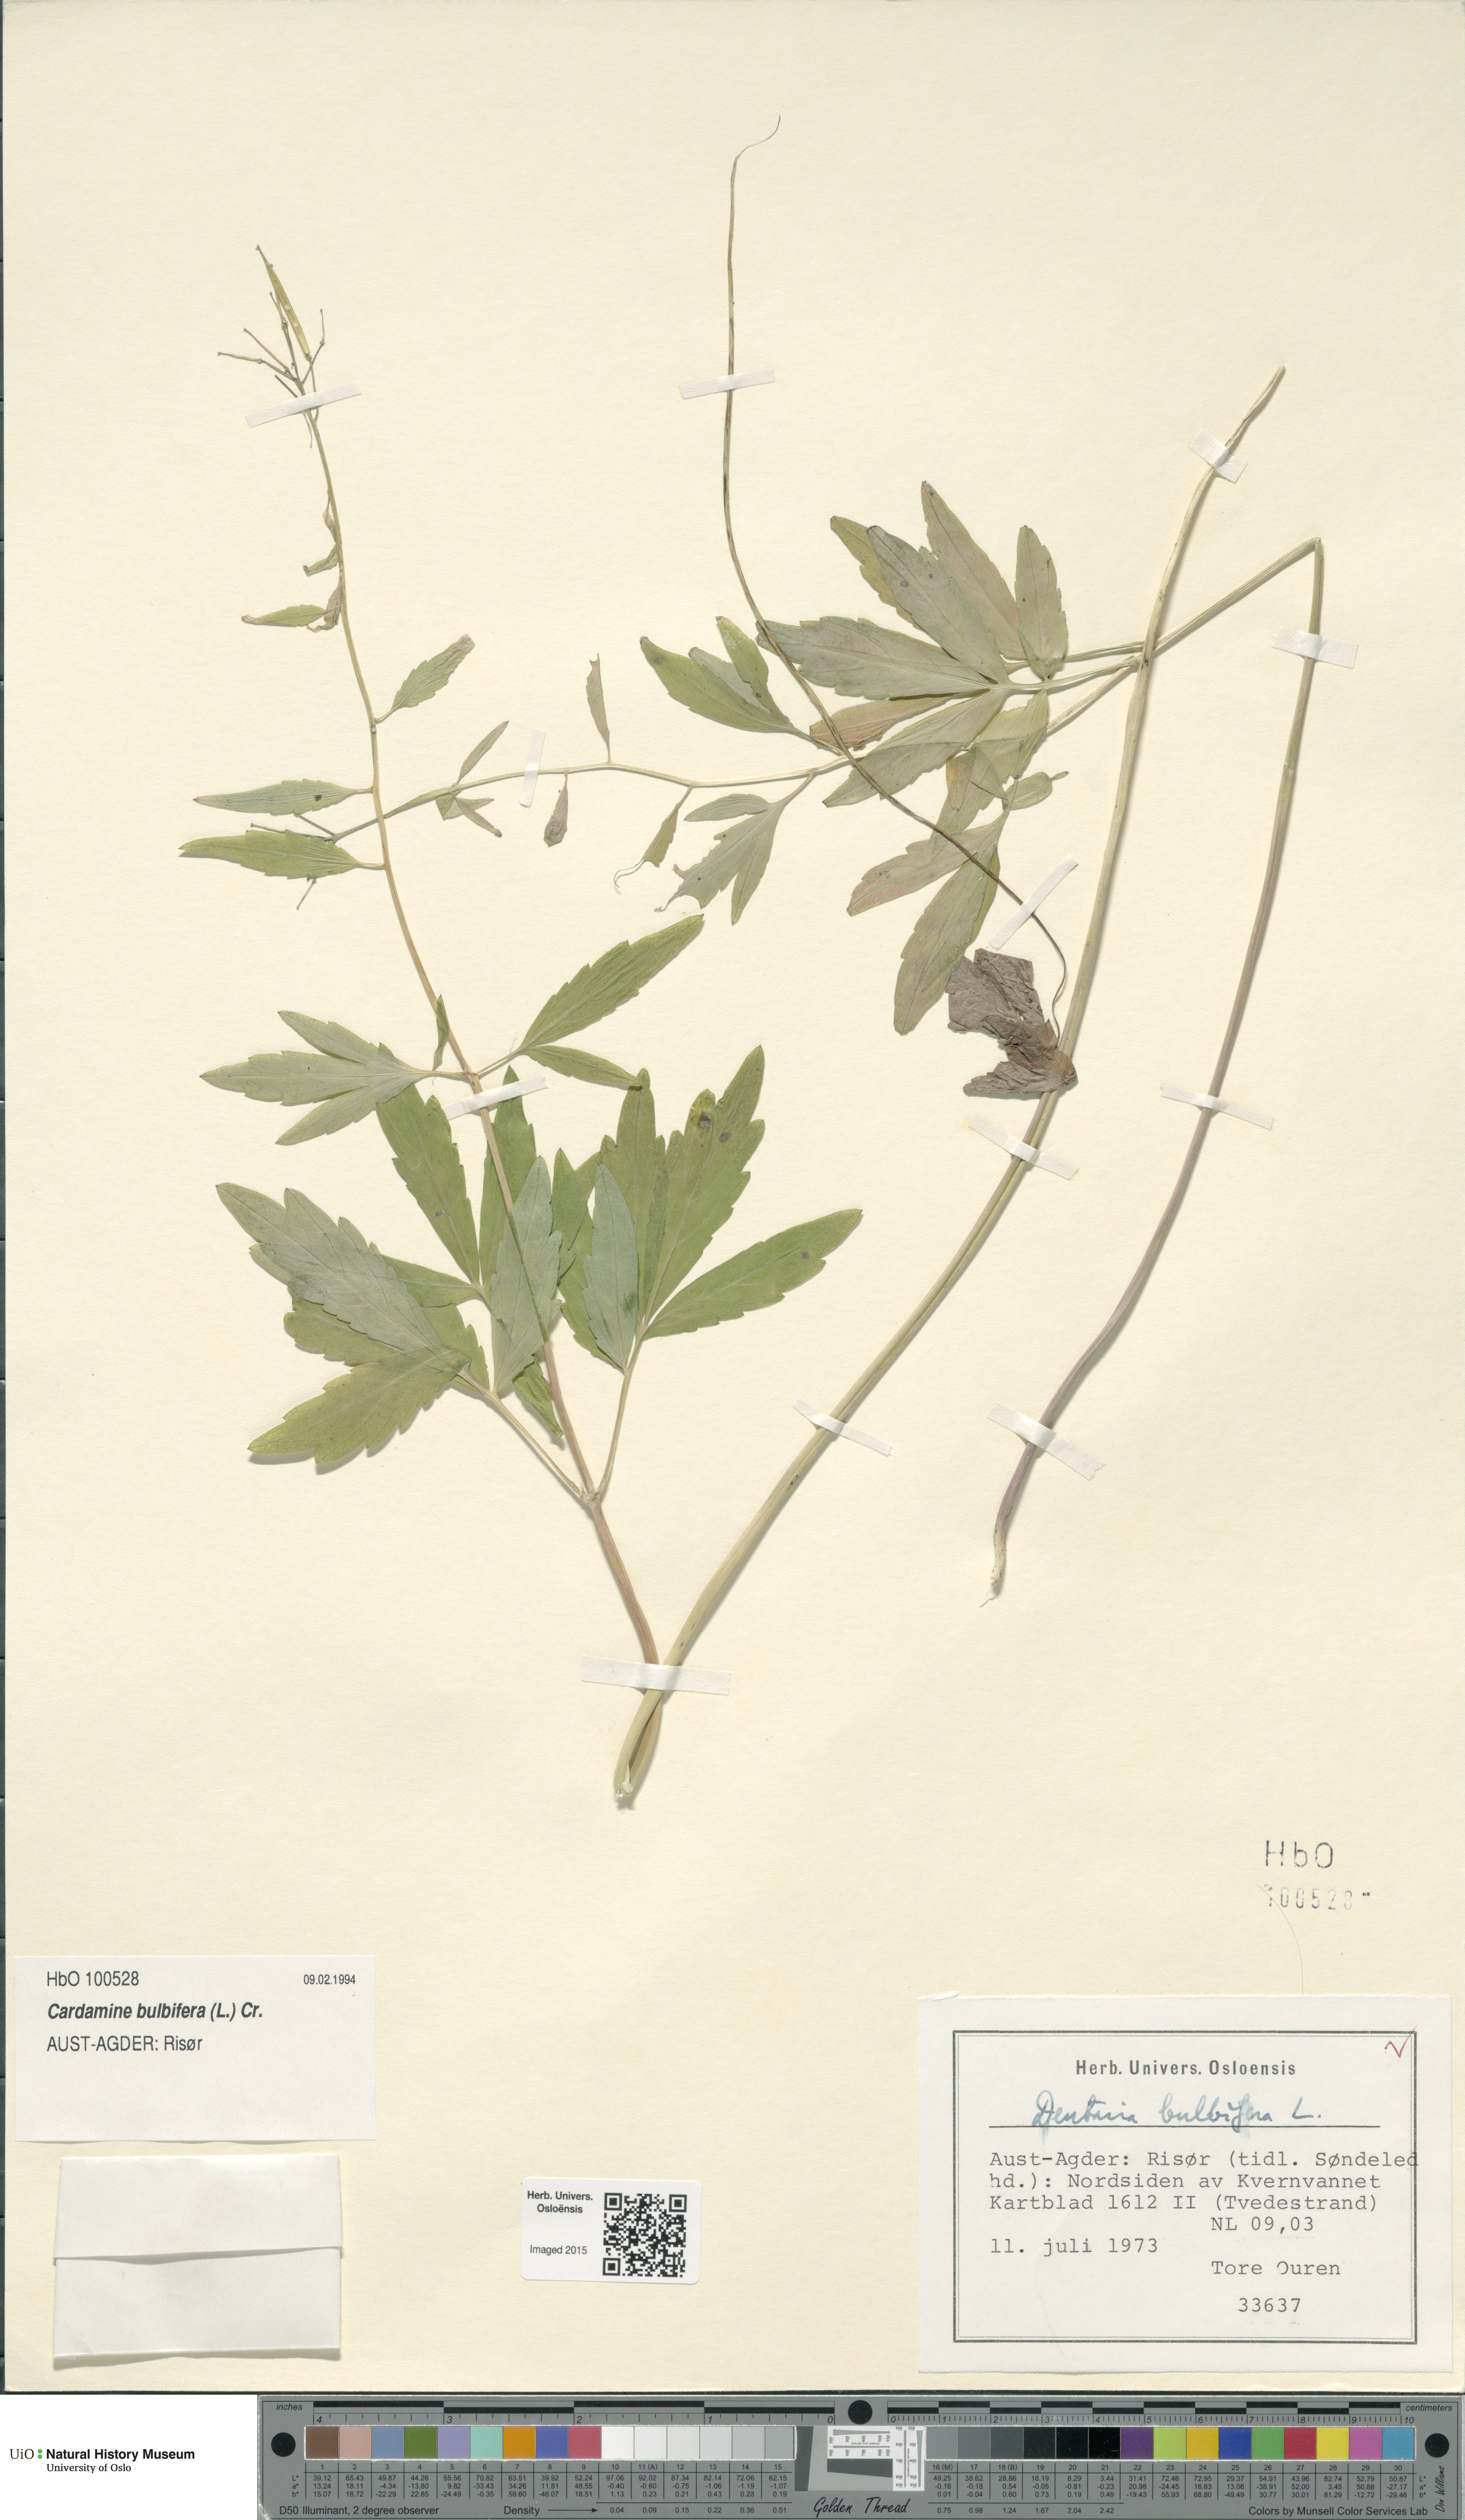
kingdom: Plantae
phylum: Tracheophyta
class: Magnoliopsida
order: Brassicales
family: Brassicaceae
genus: Cardamine
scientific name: Cardamine bulbifera
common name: Coralroot bittercress
